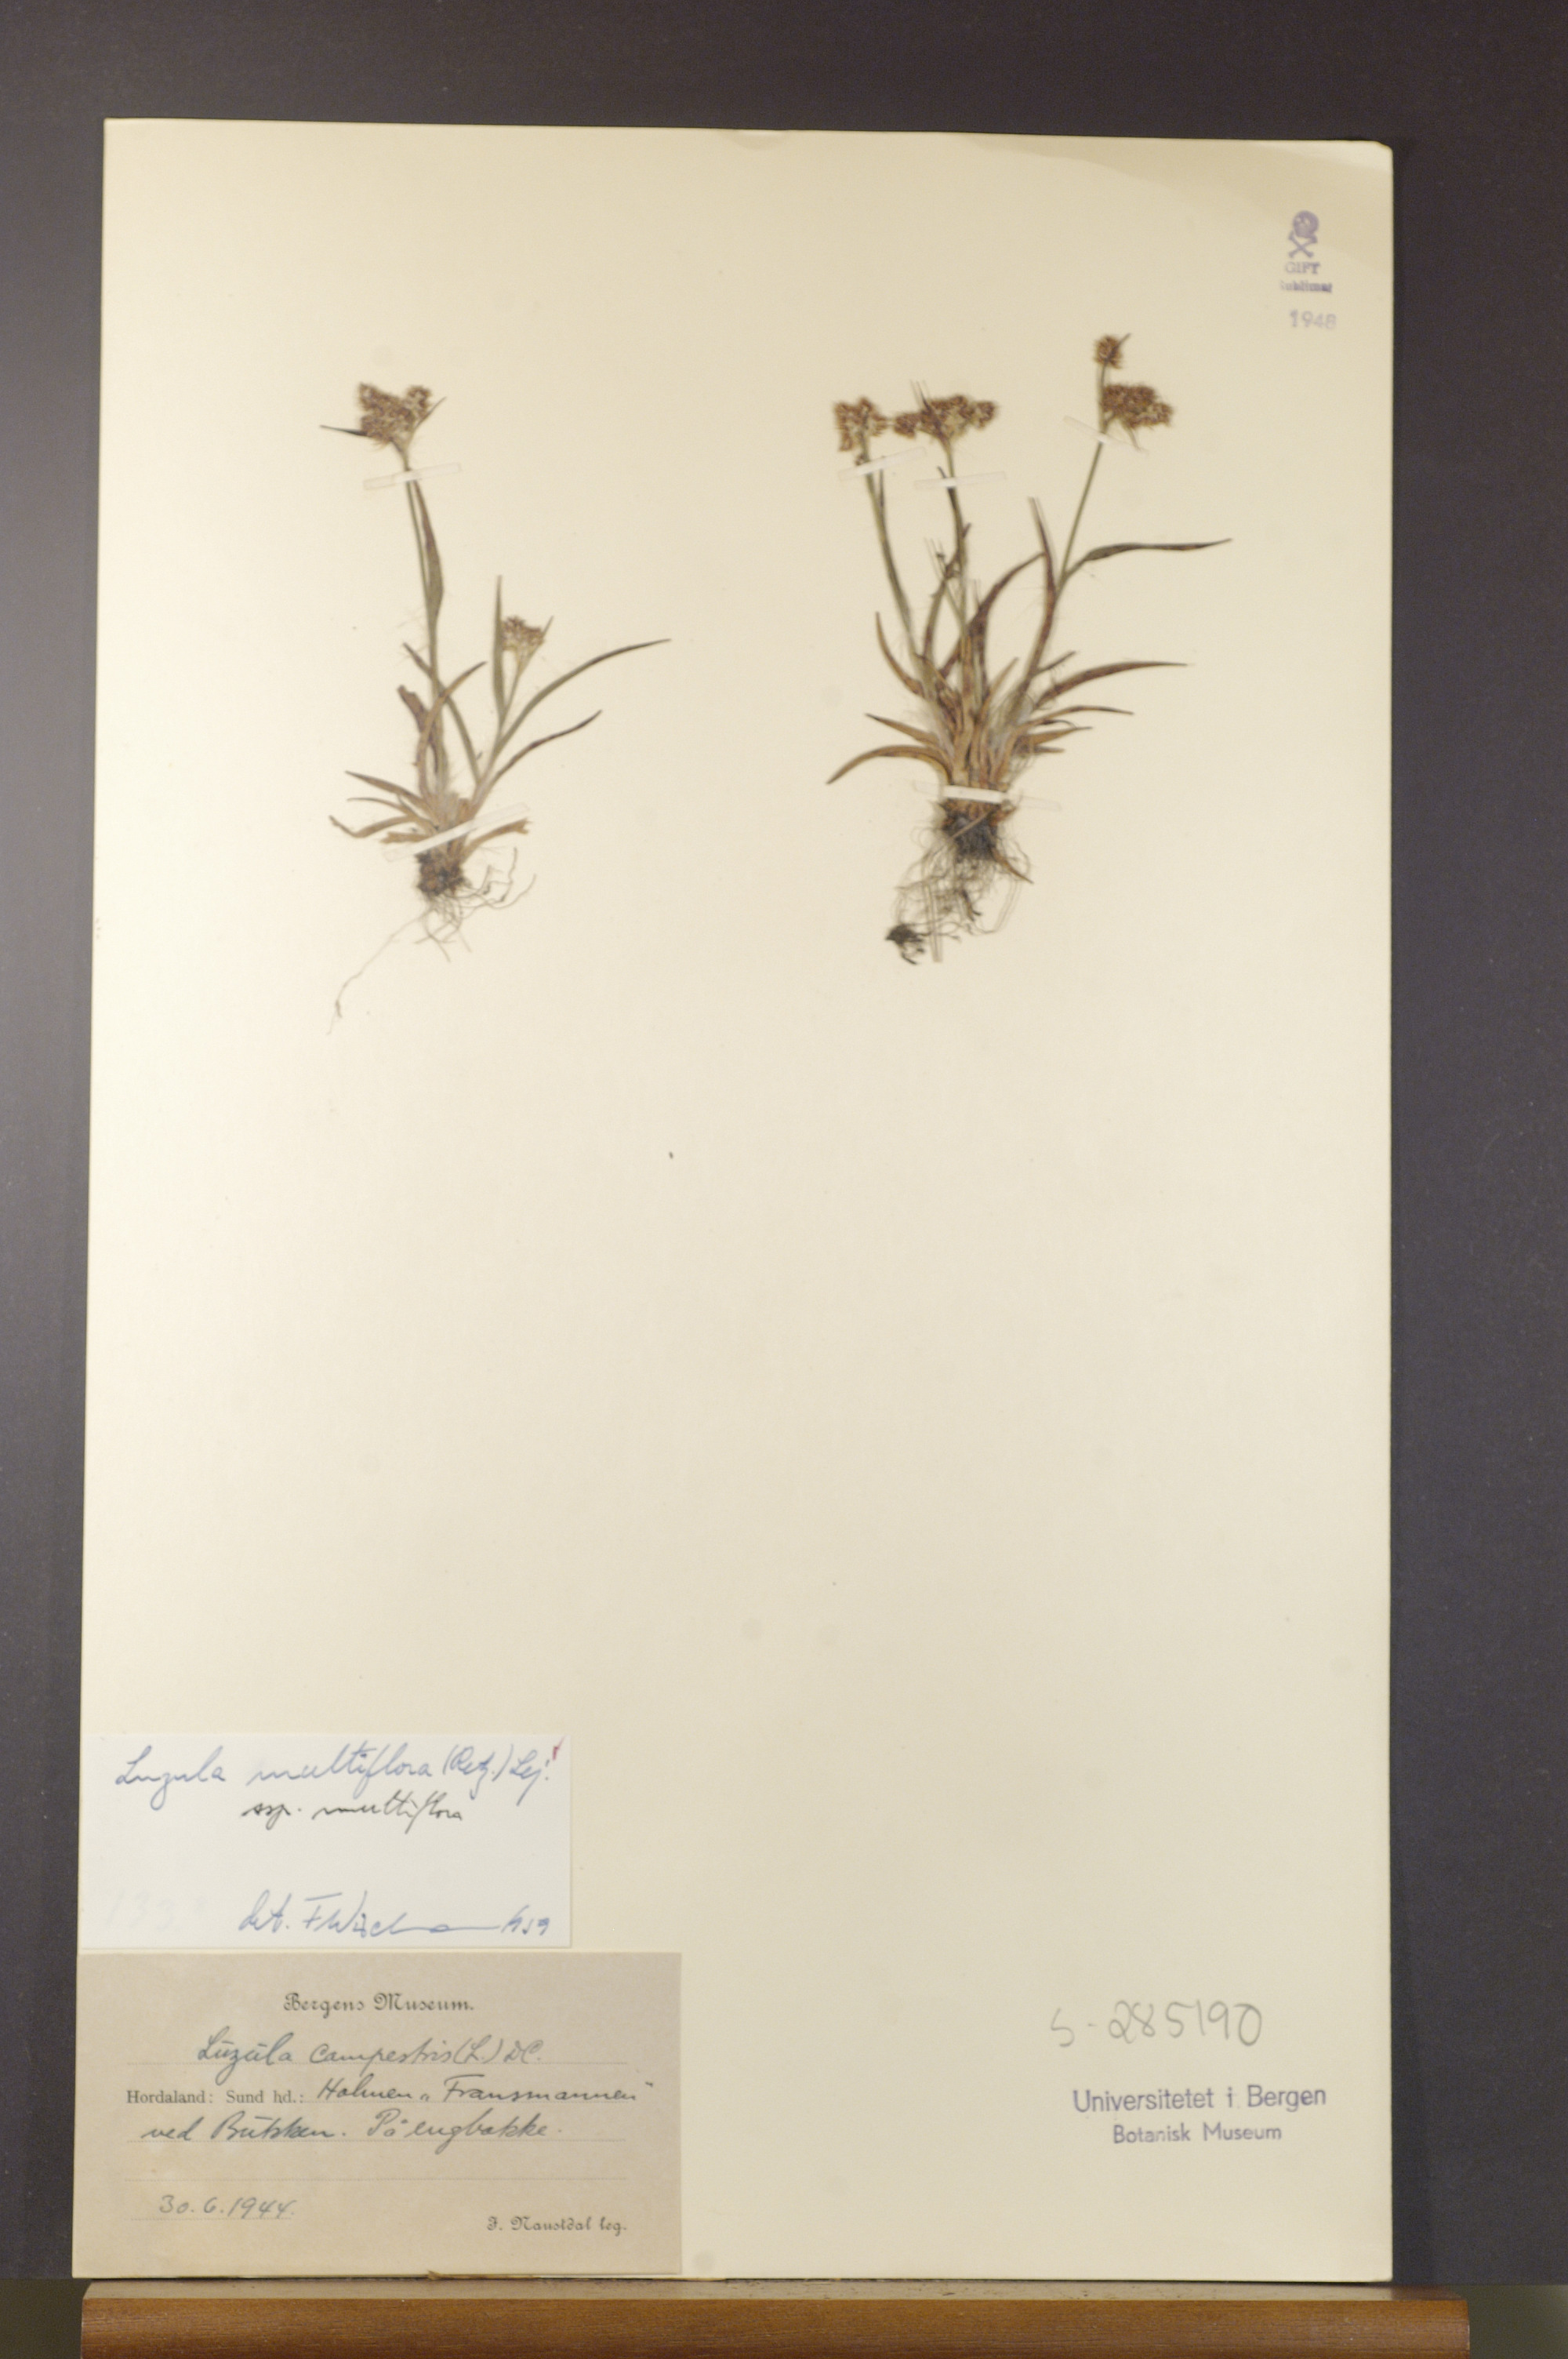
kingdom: Plantae
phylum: Tracheophyta
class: Liliopsida
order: Poales
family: Juncaceae
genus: Luzula
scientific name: Luzula multiflora
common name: Heath wood-rush
